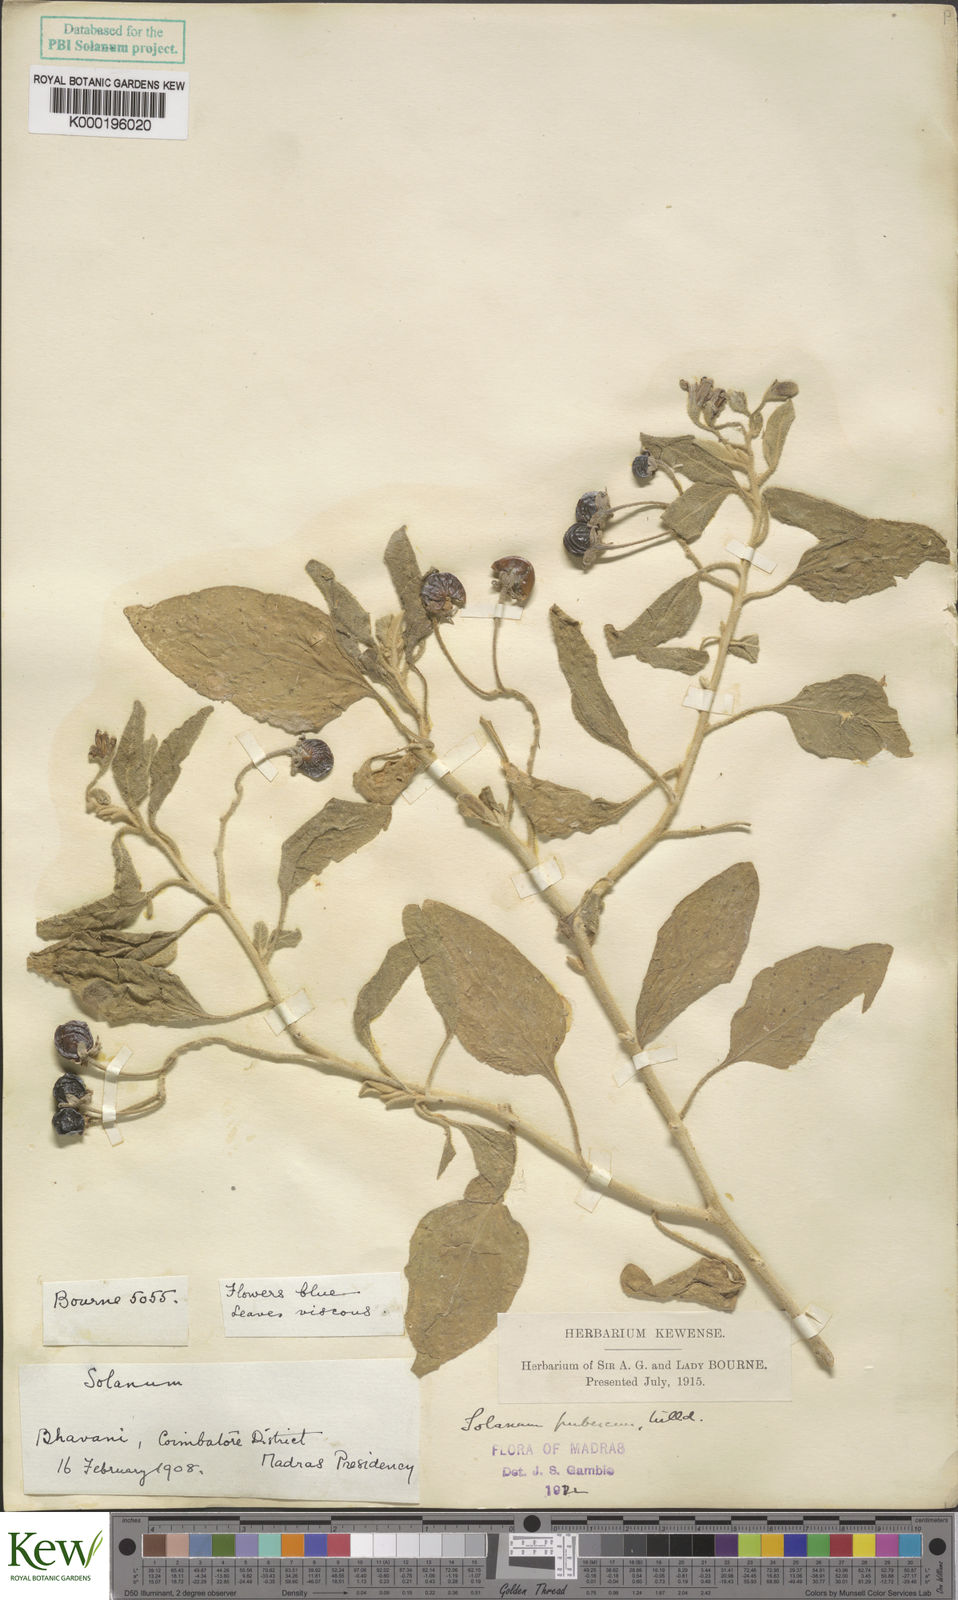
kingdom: Plantae
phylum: Tracheophyta
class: Magnoliopsida
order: Solanales
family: Solanaceae
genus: Solanum
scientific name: Solanum pubescens
